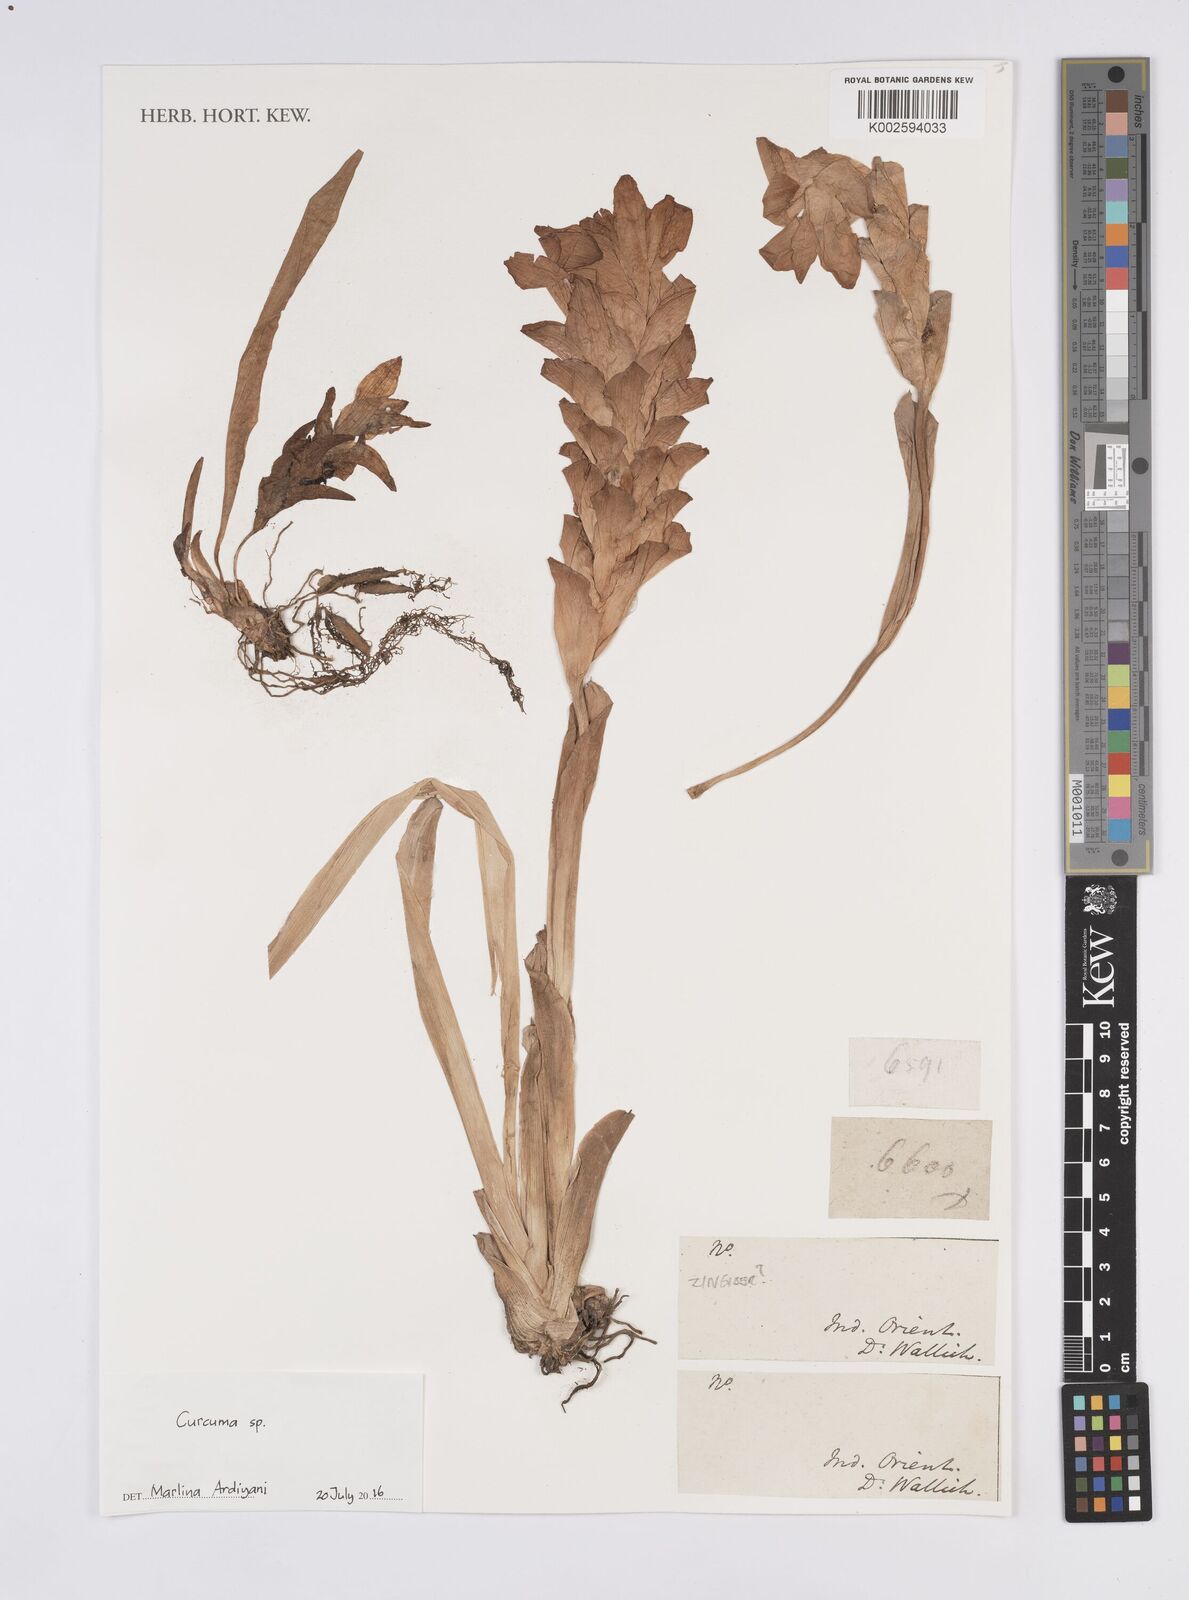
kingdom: Plantae
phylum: Tracheophyta
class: Liliopsida
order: Zingiberales
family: Zingiberaceae
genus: Curcuma
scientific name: Curcuma
